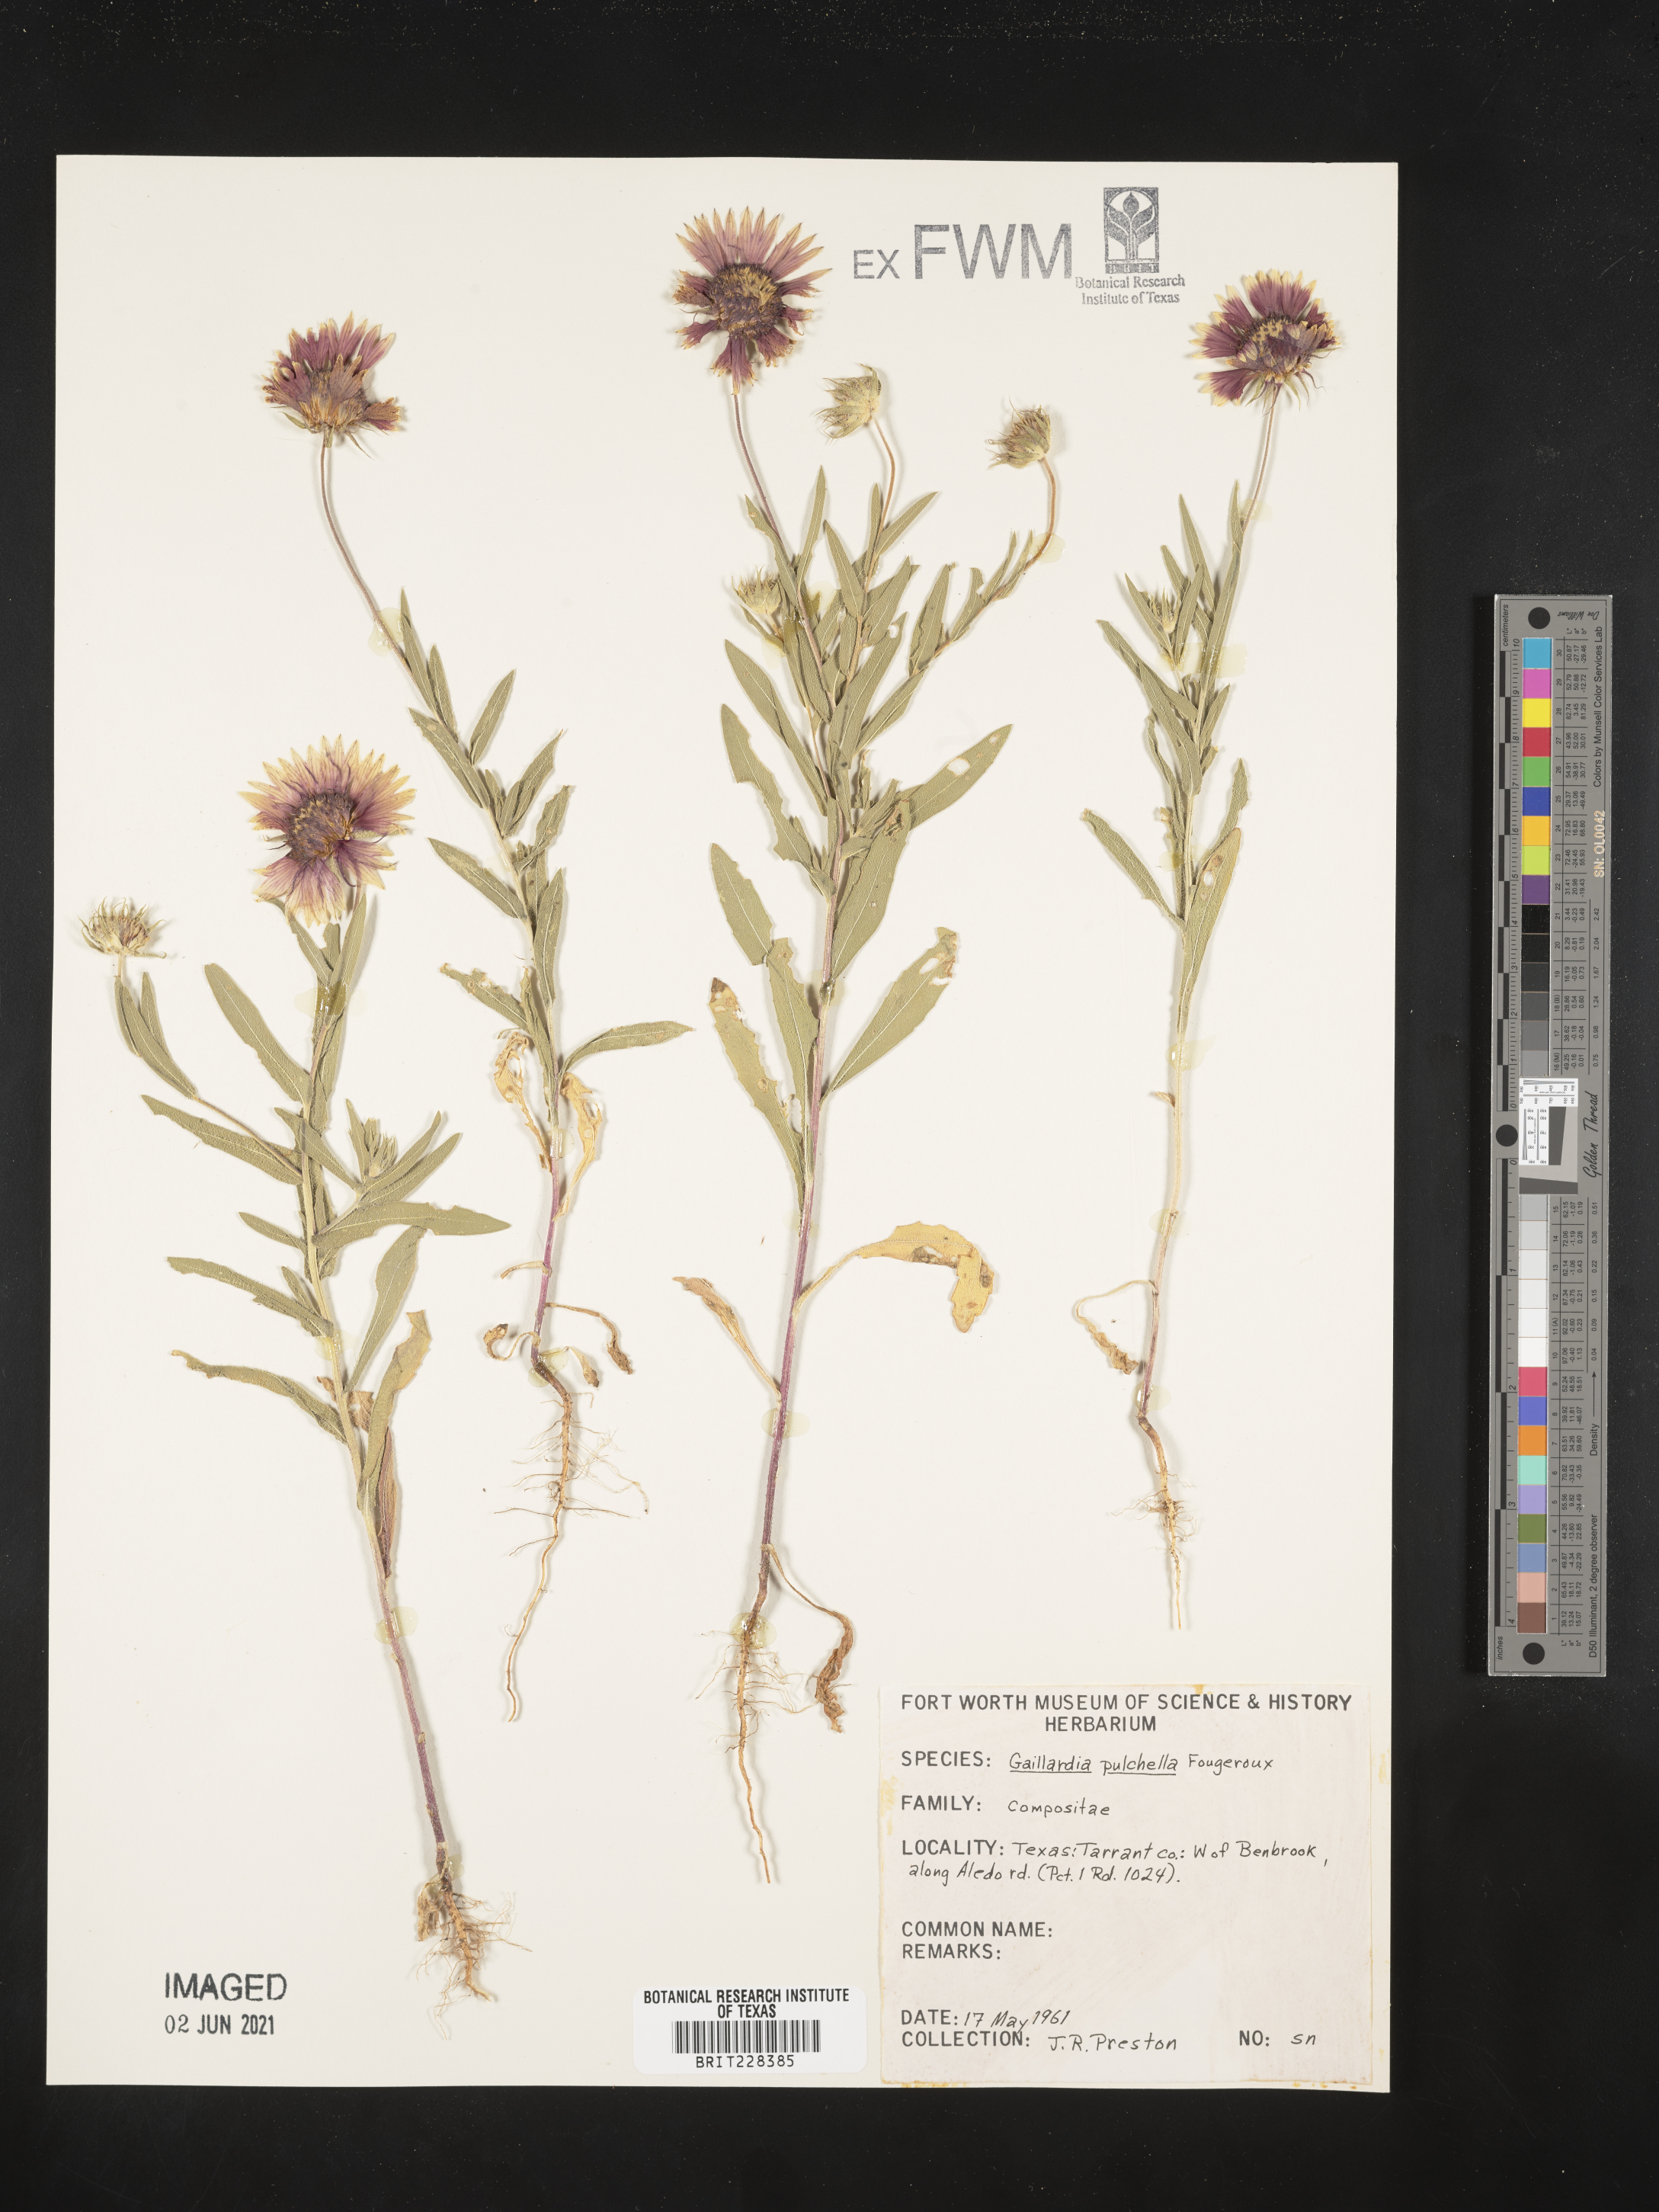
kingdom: Plantae
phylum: Tracheophyta
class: Magnoliopsida
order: Asterales
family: Asteraceae
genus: Gaillardia
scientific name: Gaillardia pulchella
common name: Firewheel
